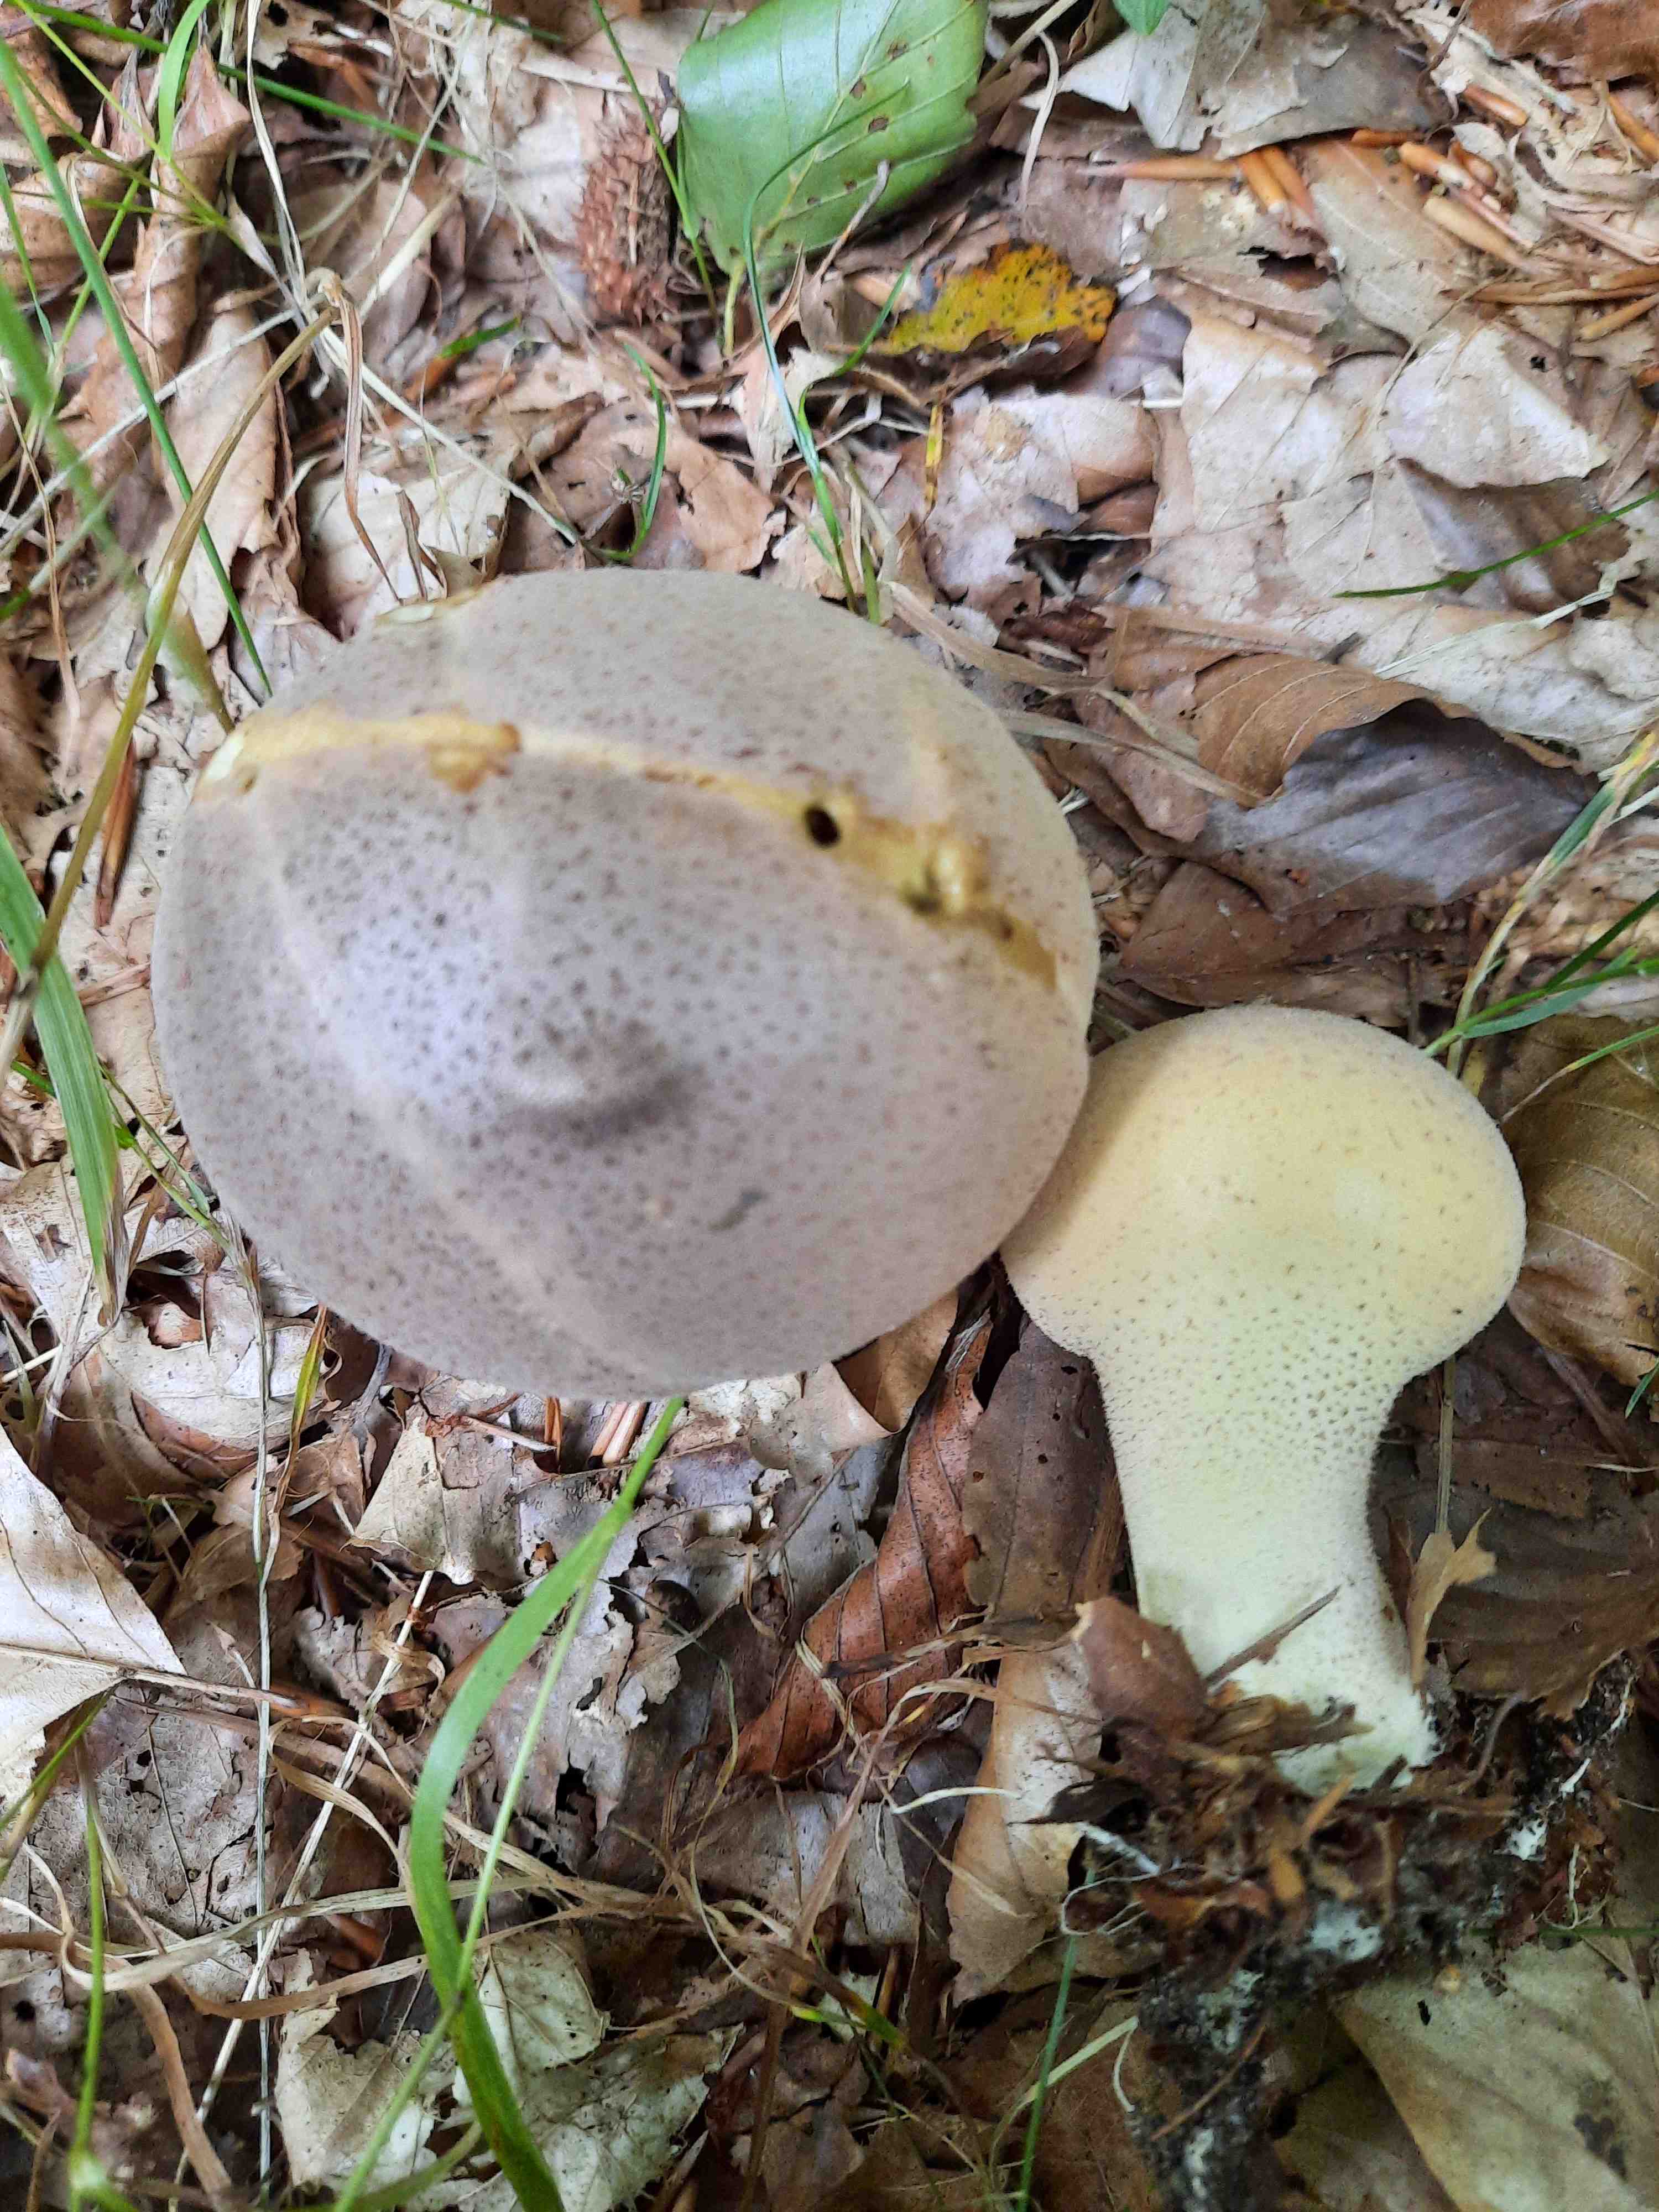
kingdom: Fungi
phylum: Basidiomycota
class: Agaricomycetes
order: Agaricales
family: Lycoperdaceae
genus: Lycoperdon
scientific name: Lycoperdon excipuliforme
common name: højstokket støvbold
